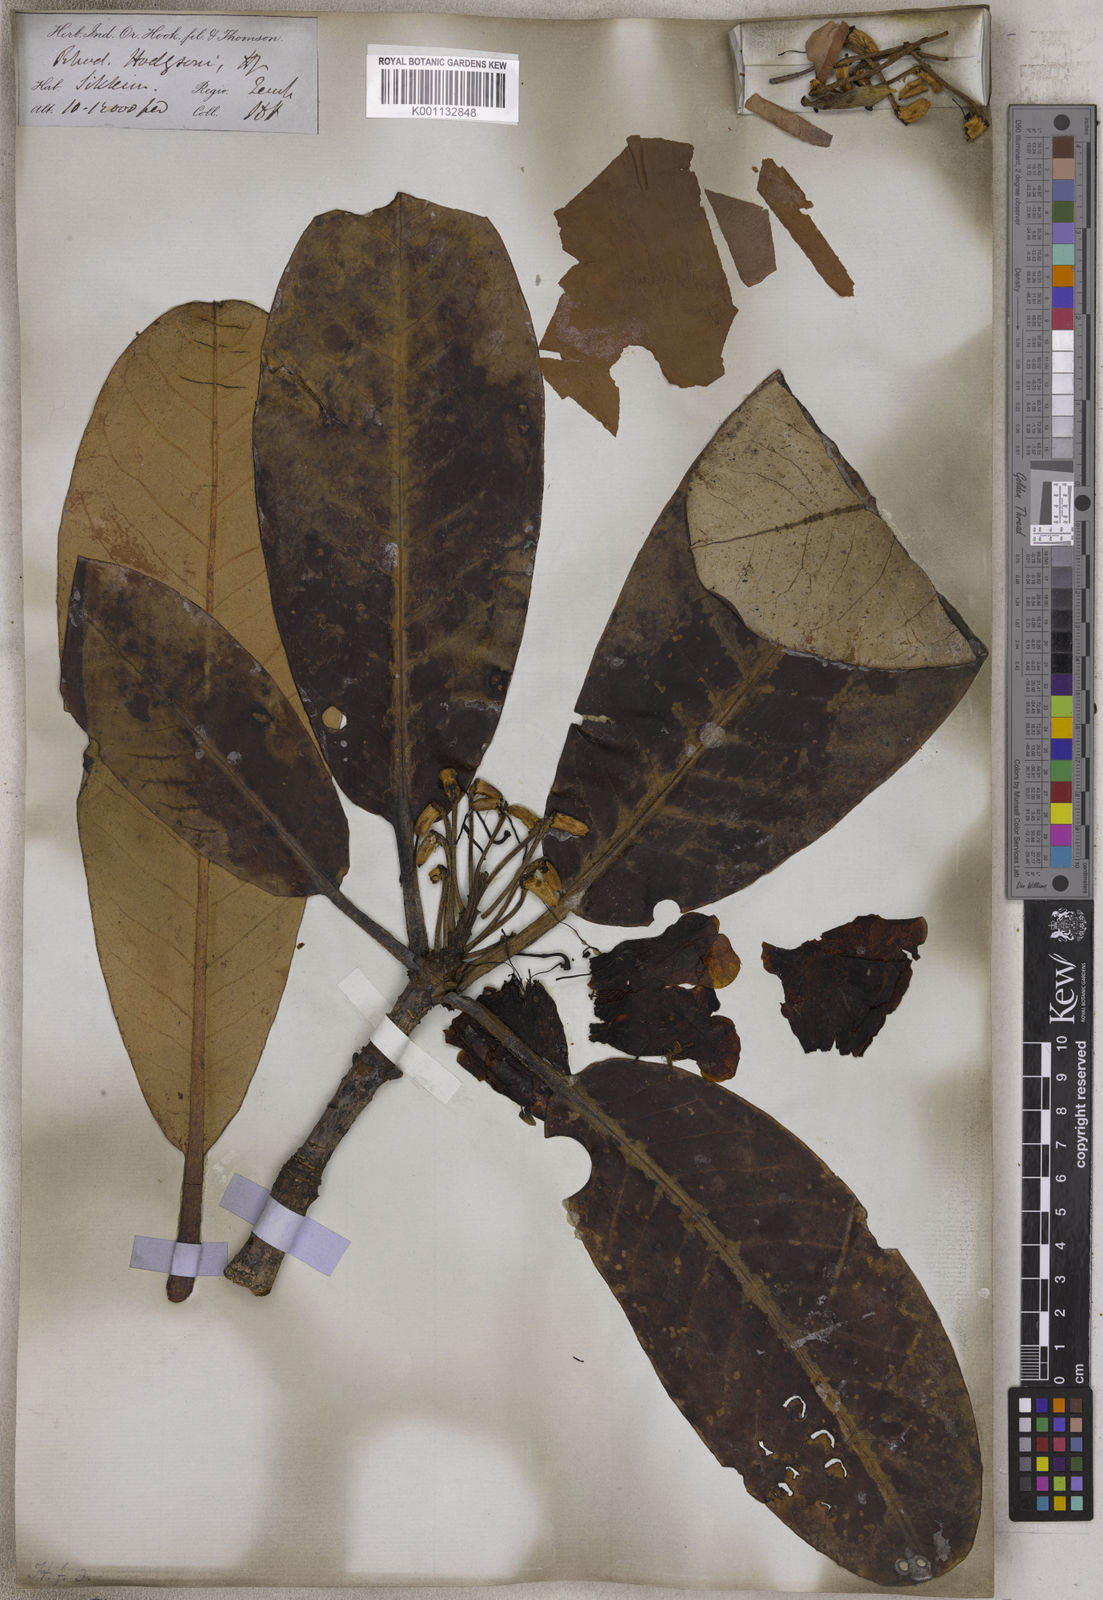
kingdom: Plantae
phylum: Tracheophyta
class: Magnoliopsida
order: Ericales
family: Ericaceae
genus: Rhododendron
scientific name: Rhododendron hodgsonii
